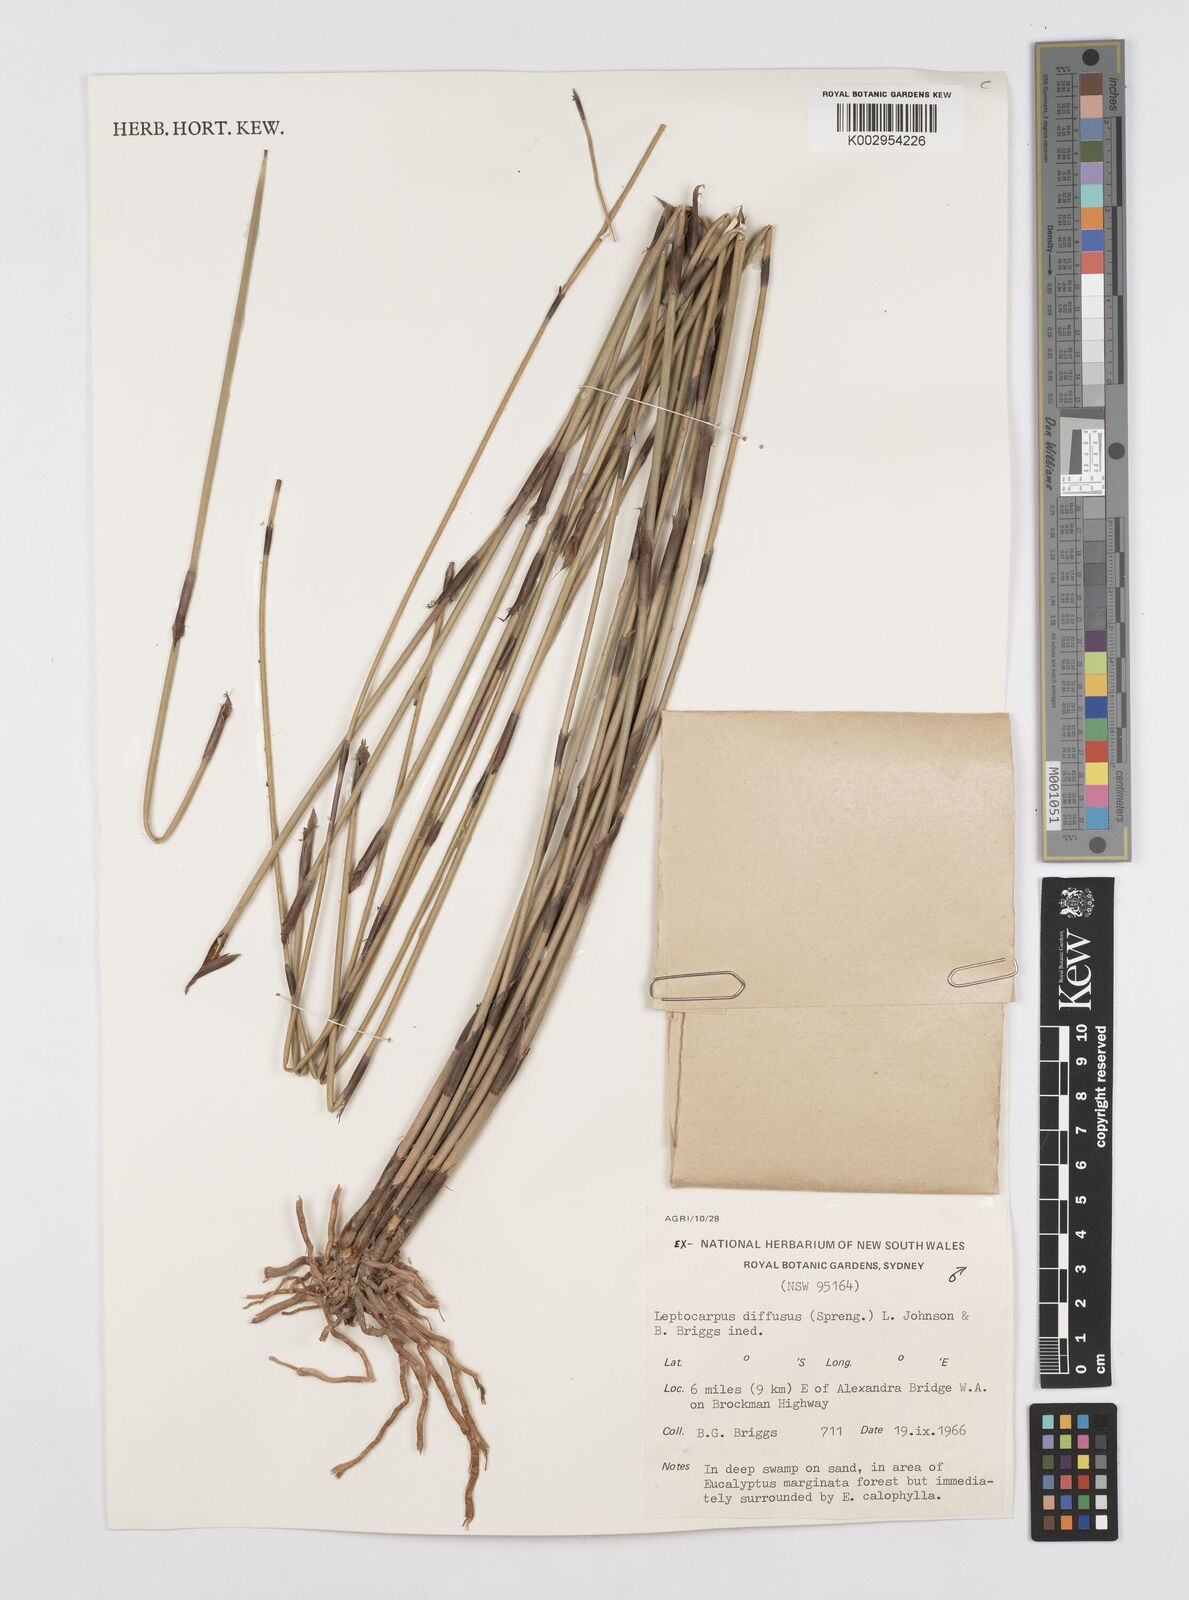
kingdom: Plantae
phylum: Tracheophyta
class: Liliopsida
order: Poales
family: Restionaceae
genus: Leptocarpus
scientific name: Leptocarpus laxus
